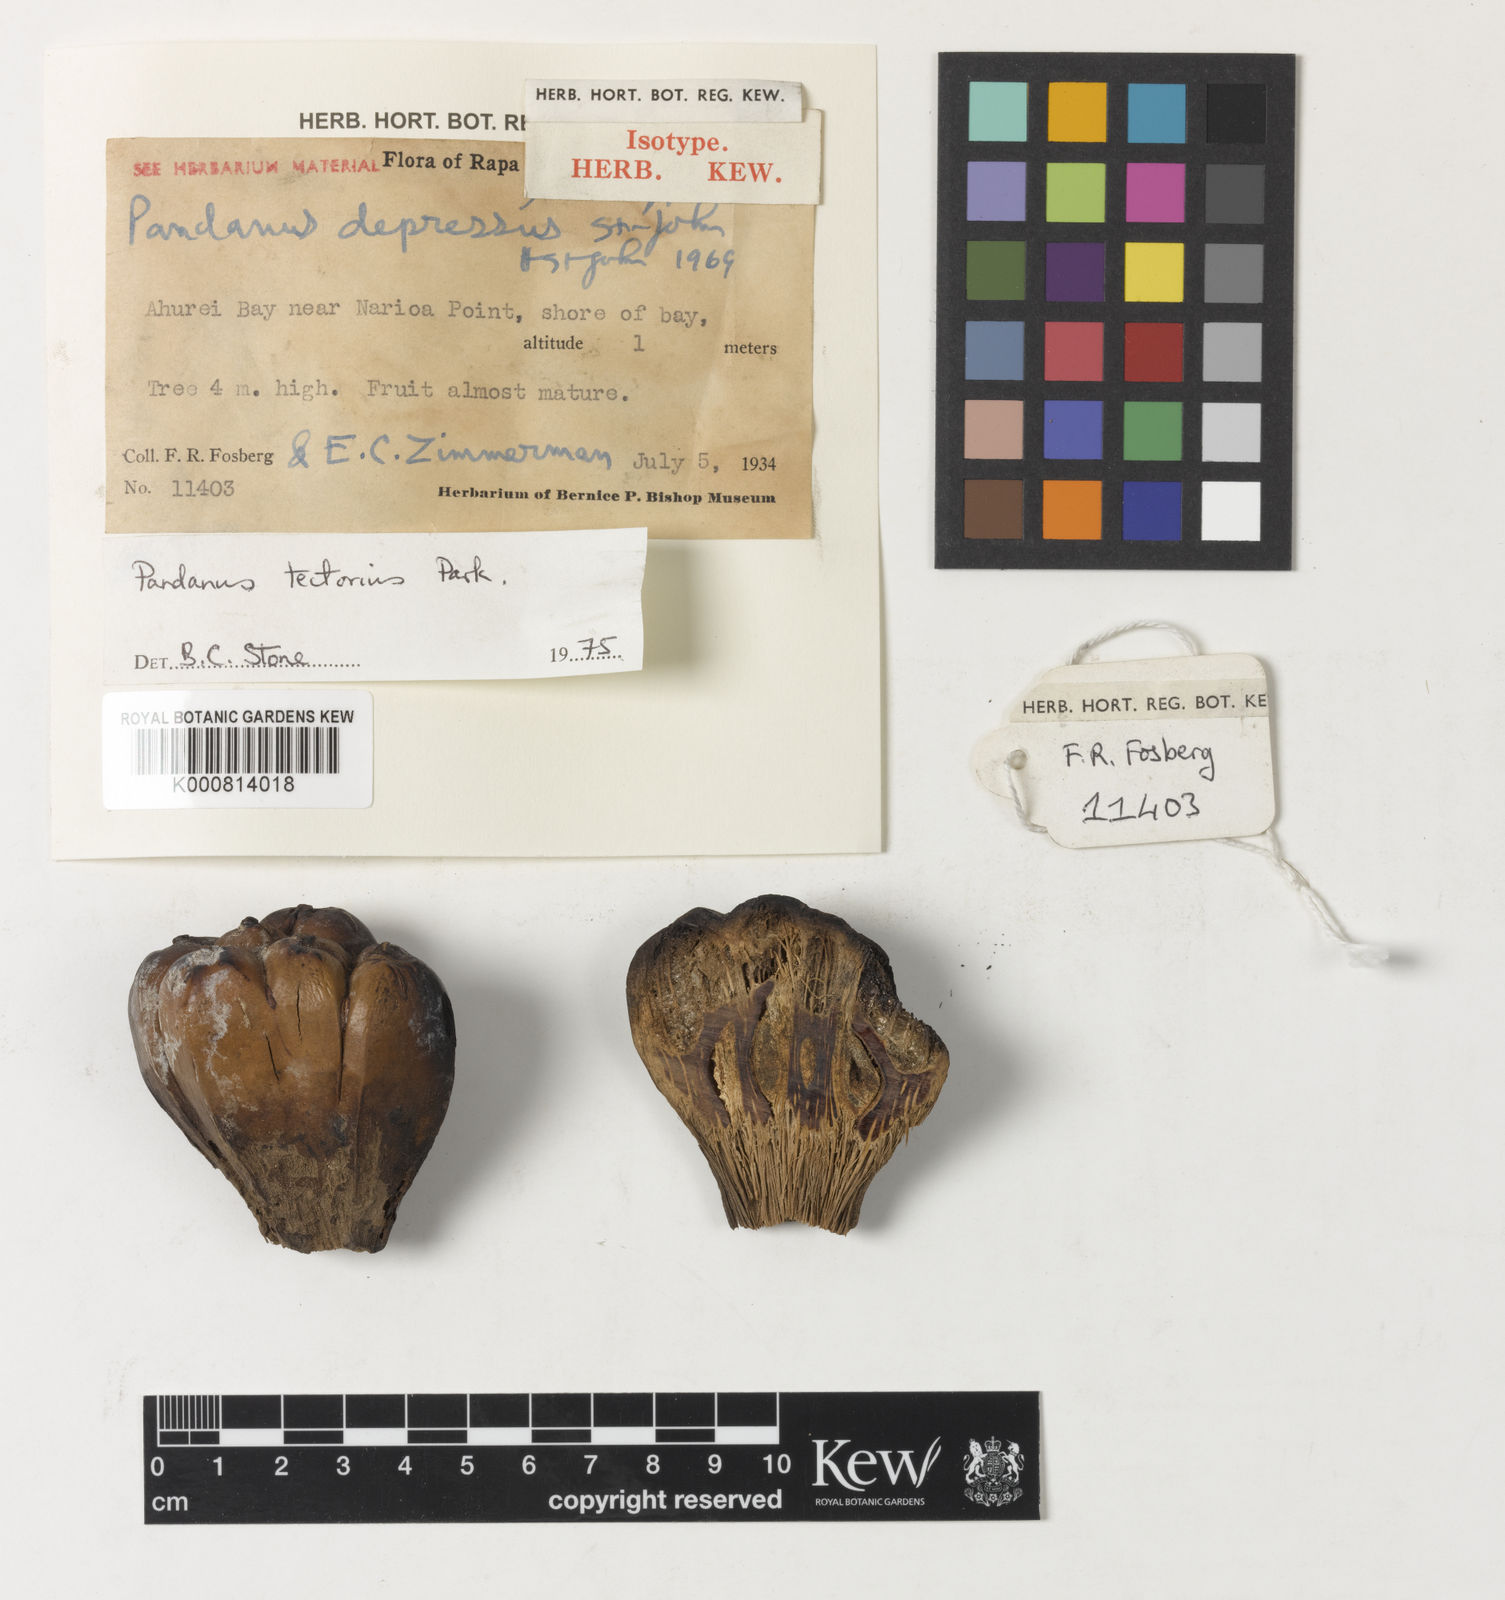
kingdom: Plantae
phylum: Tracheophyta
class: Liliopsida
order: Pandanales
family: Pandanaceae
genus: Pandanus
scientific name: Pandanus
